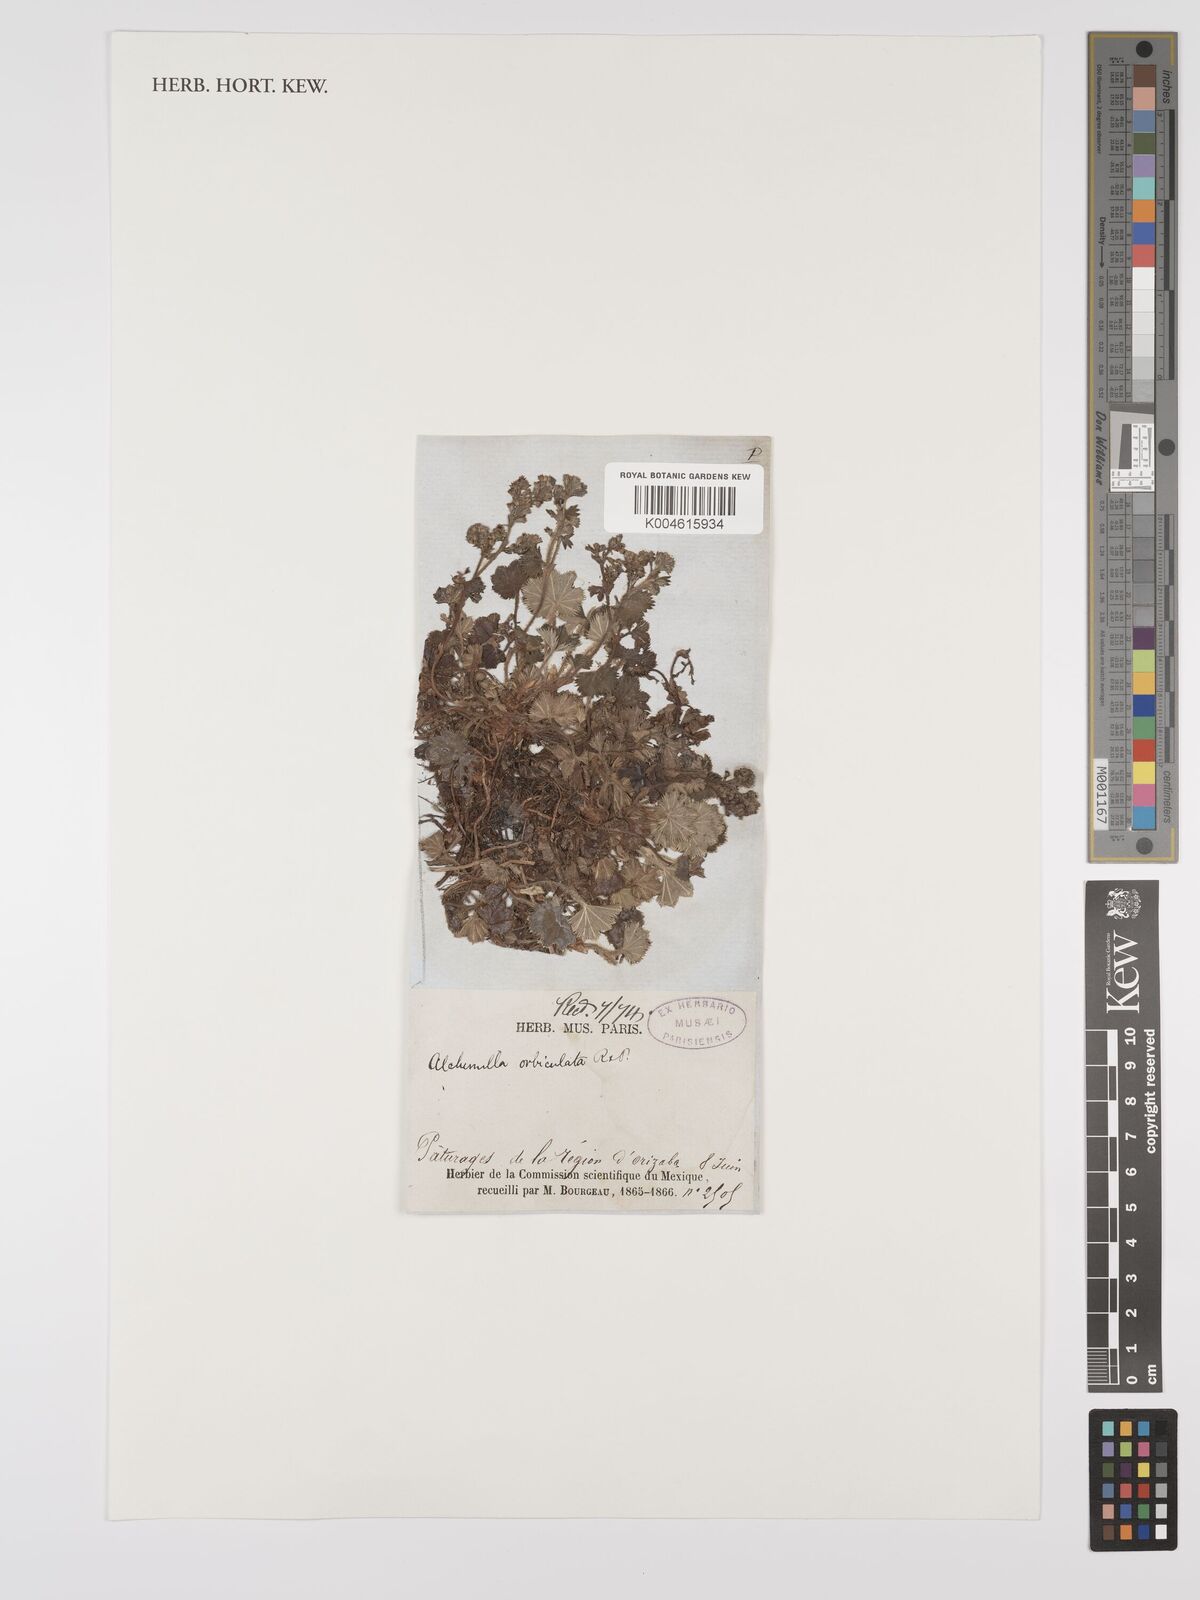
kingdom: Plantae
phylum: Tracheophyta
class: Magnoliopsida
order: Rosales
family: Rosaceae
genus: Lachemilla
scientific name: Lachemilla pectinata
